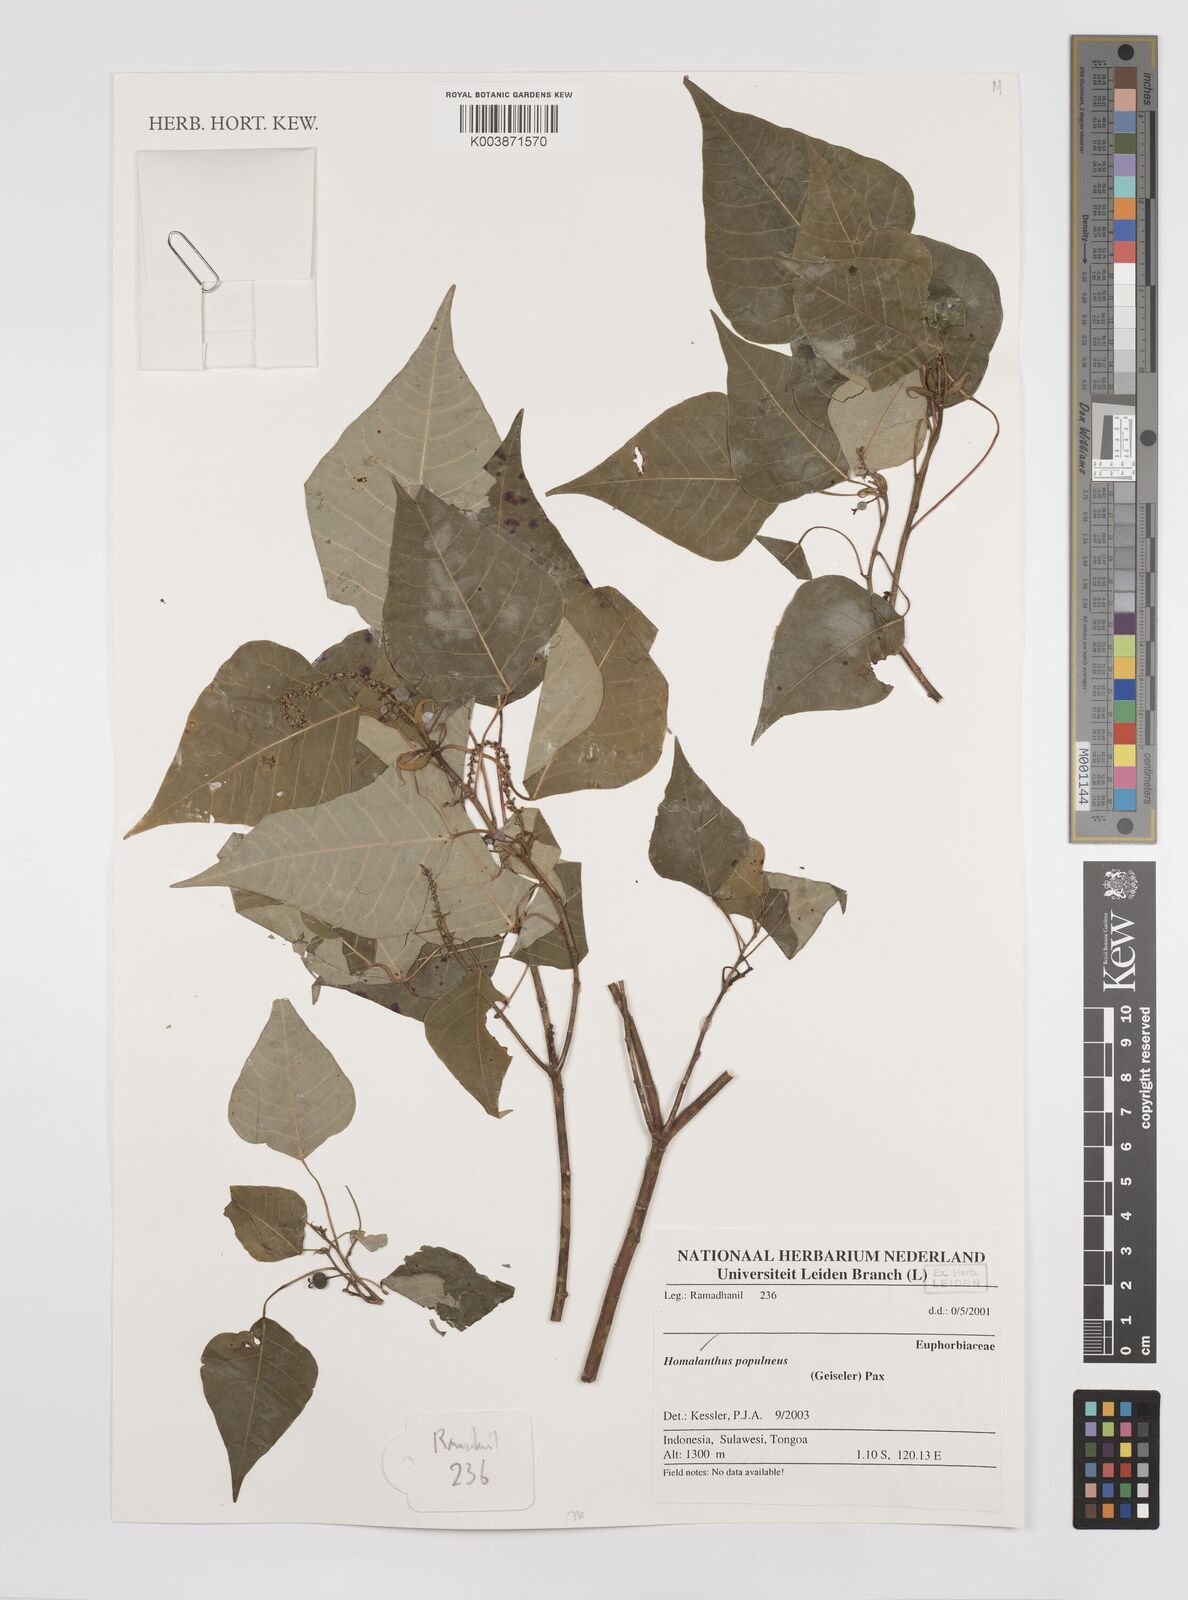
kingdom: Plantae
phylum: Tracheophyta
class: Magnoliopsida
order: Malpighiales
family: Euphorbiaceae
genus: Homalanthus
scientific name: Homalanthus populneus
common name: Spurge
